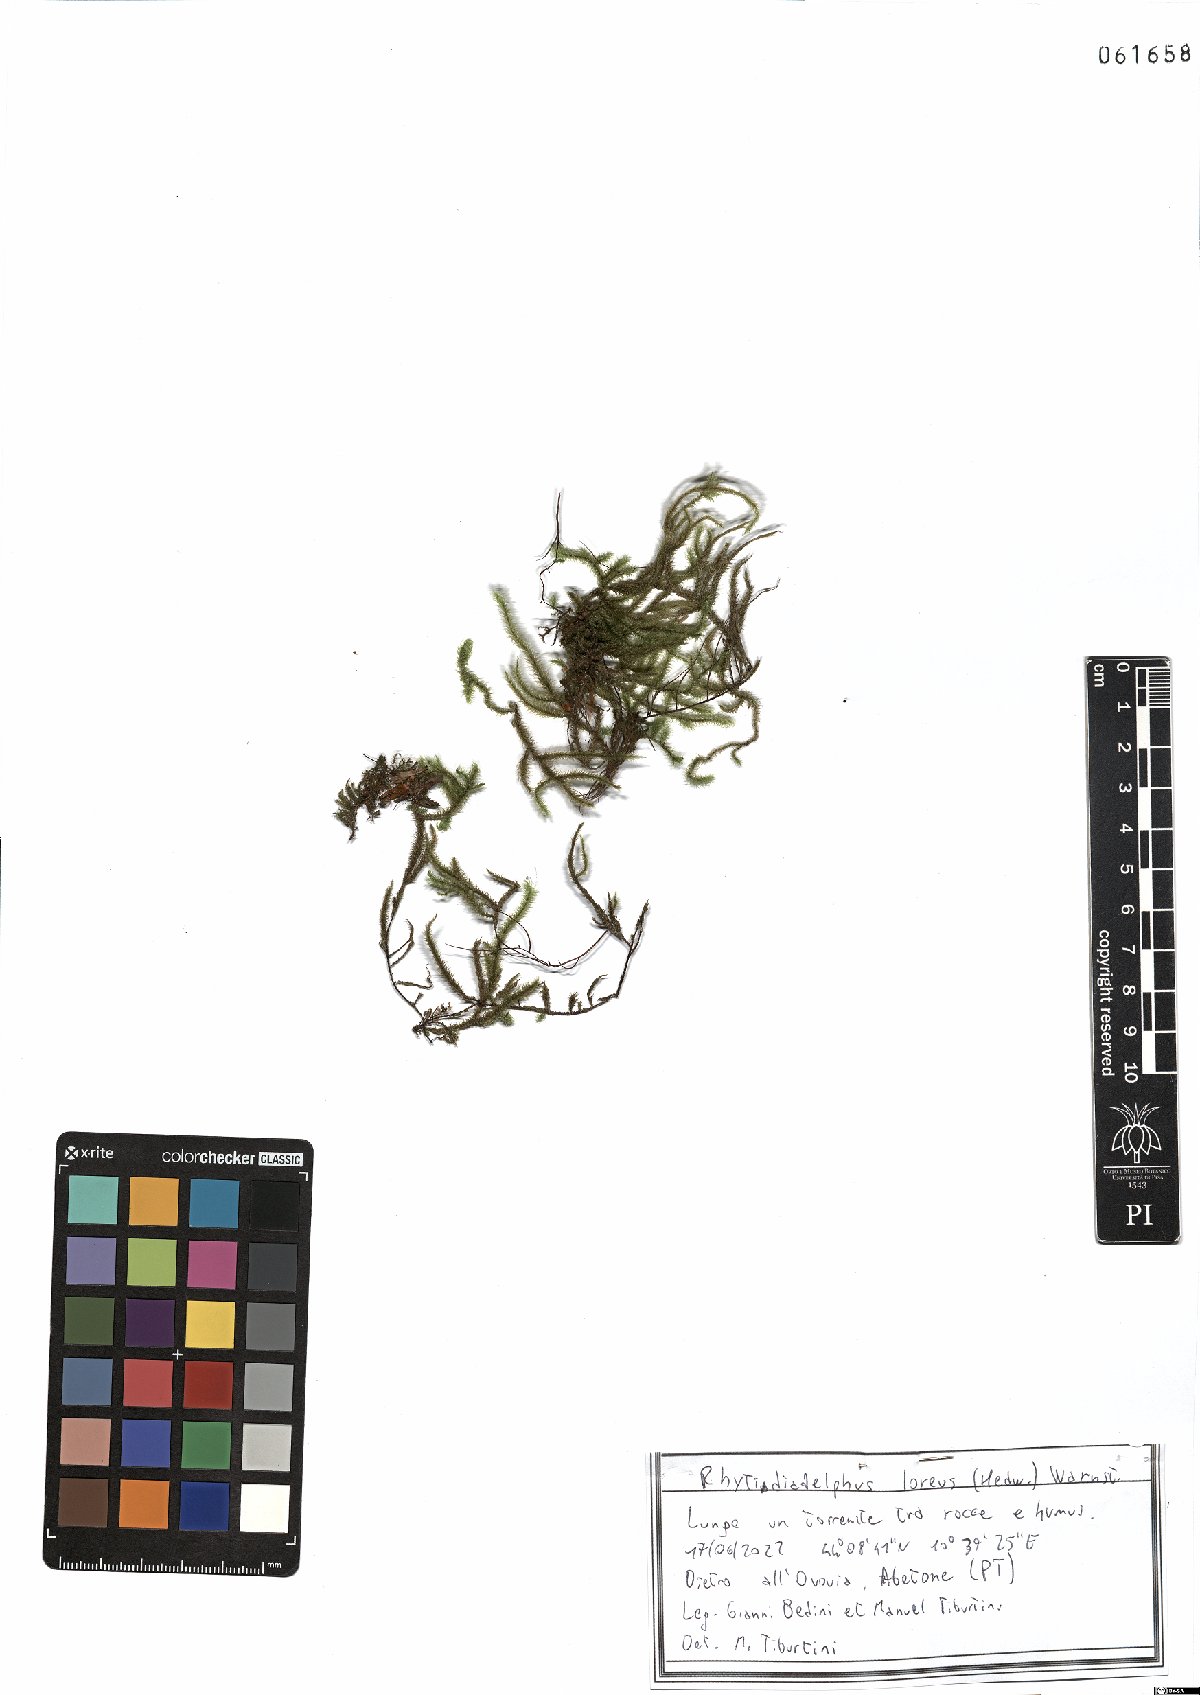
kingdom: Plantae
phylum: Bryophyta
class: Bryopsida
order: Hypnales
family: Hylocomiaceae
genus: Rhytidiadelphus
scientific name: Rhytidiadelphus loreus
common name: Lanky moss
